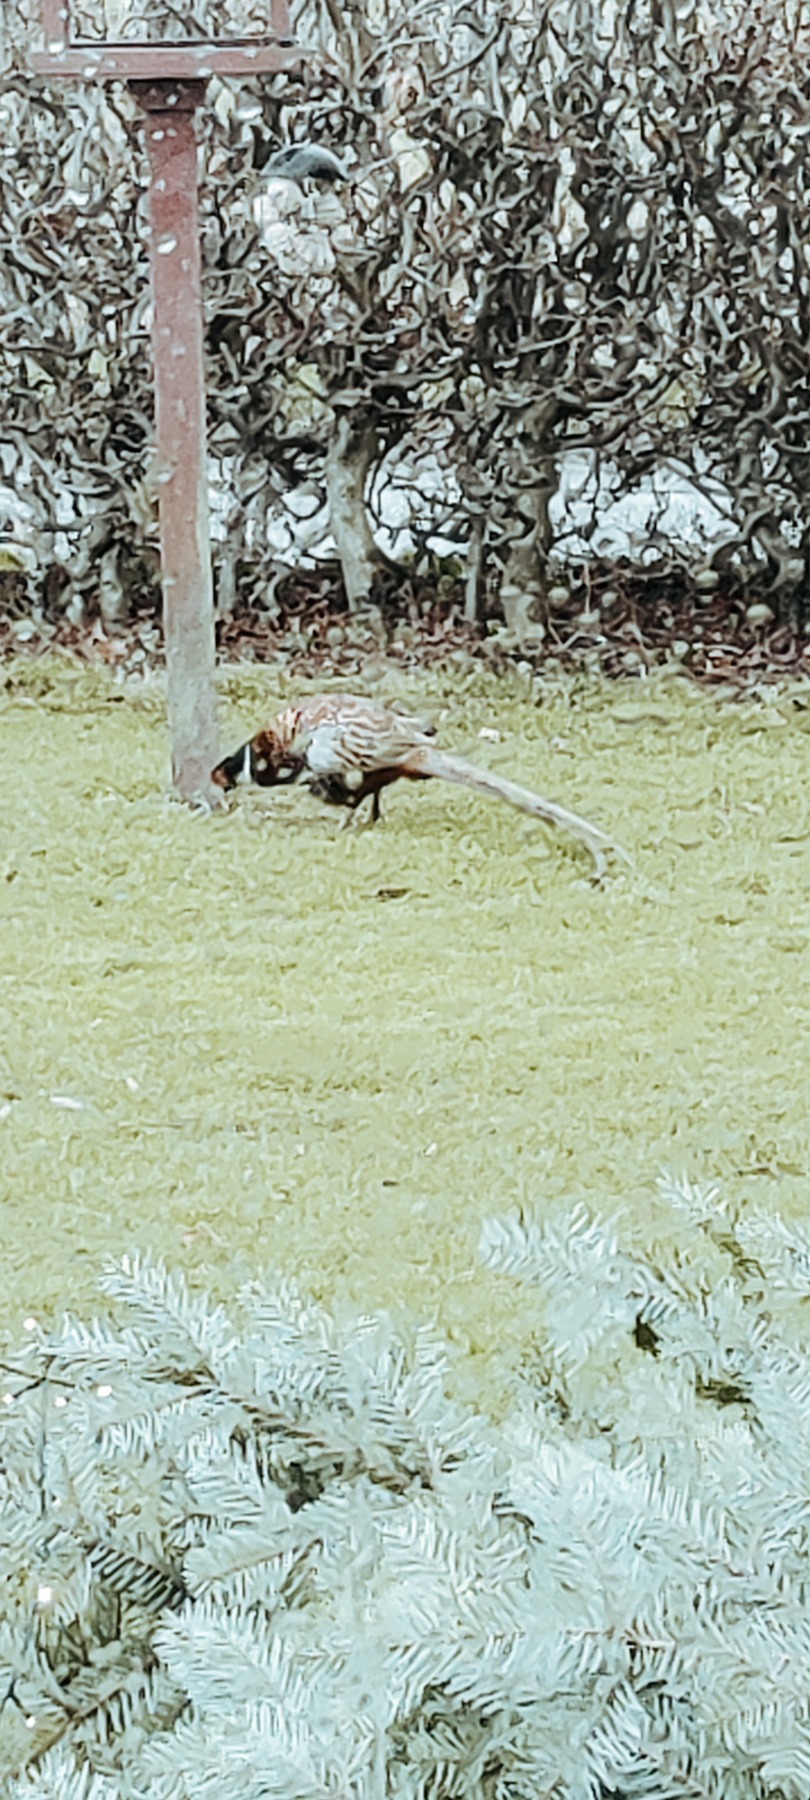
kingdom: Animalia
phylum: Chordata
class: Aves
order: Galliformes
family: Phasianidae
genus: Phasianus
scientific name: Phasianus colchicus
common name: Fasan
